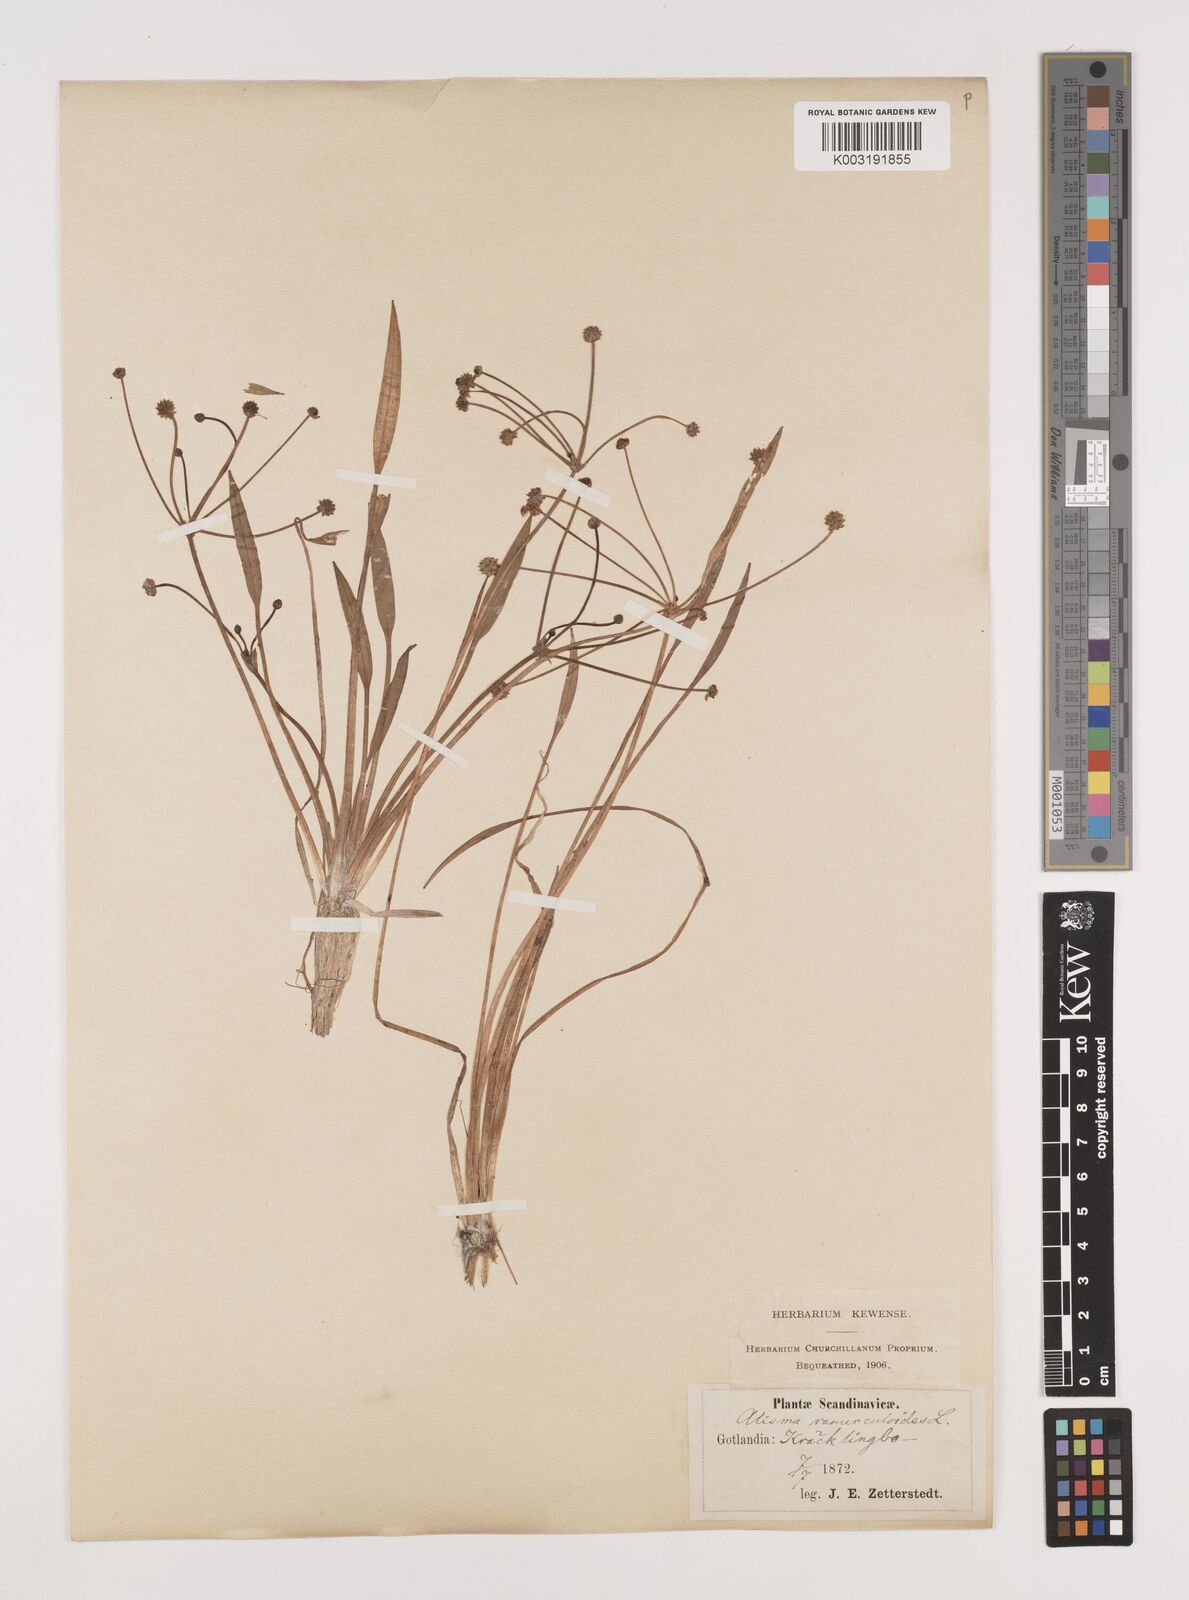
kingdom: Plantae
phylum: Tracheophyta
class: Liliopsida
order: Alismatales
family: Alismataceae
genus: Baldellia
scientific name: Baldellia ranunculoides
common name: Lesser water-plantain
